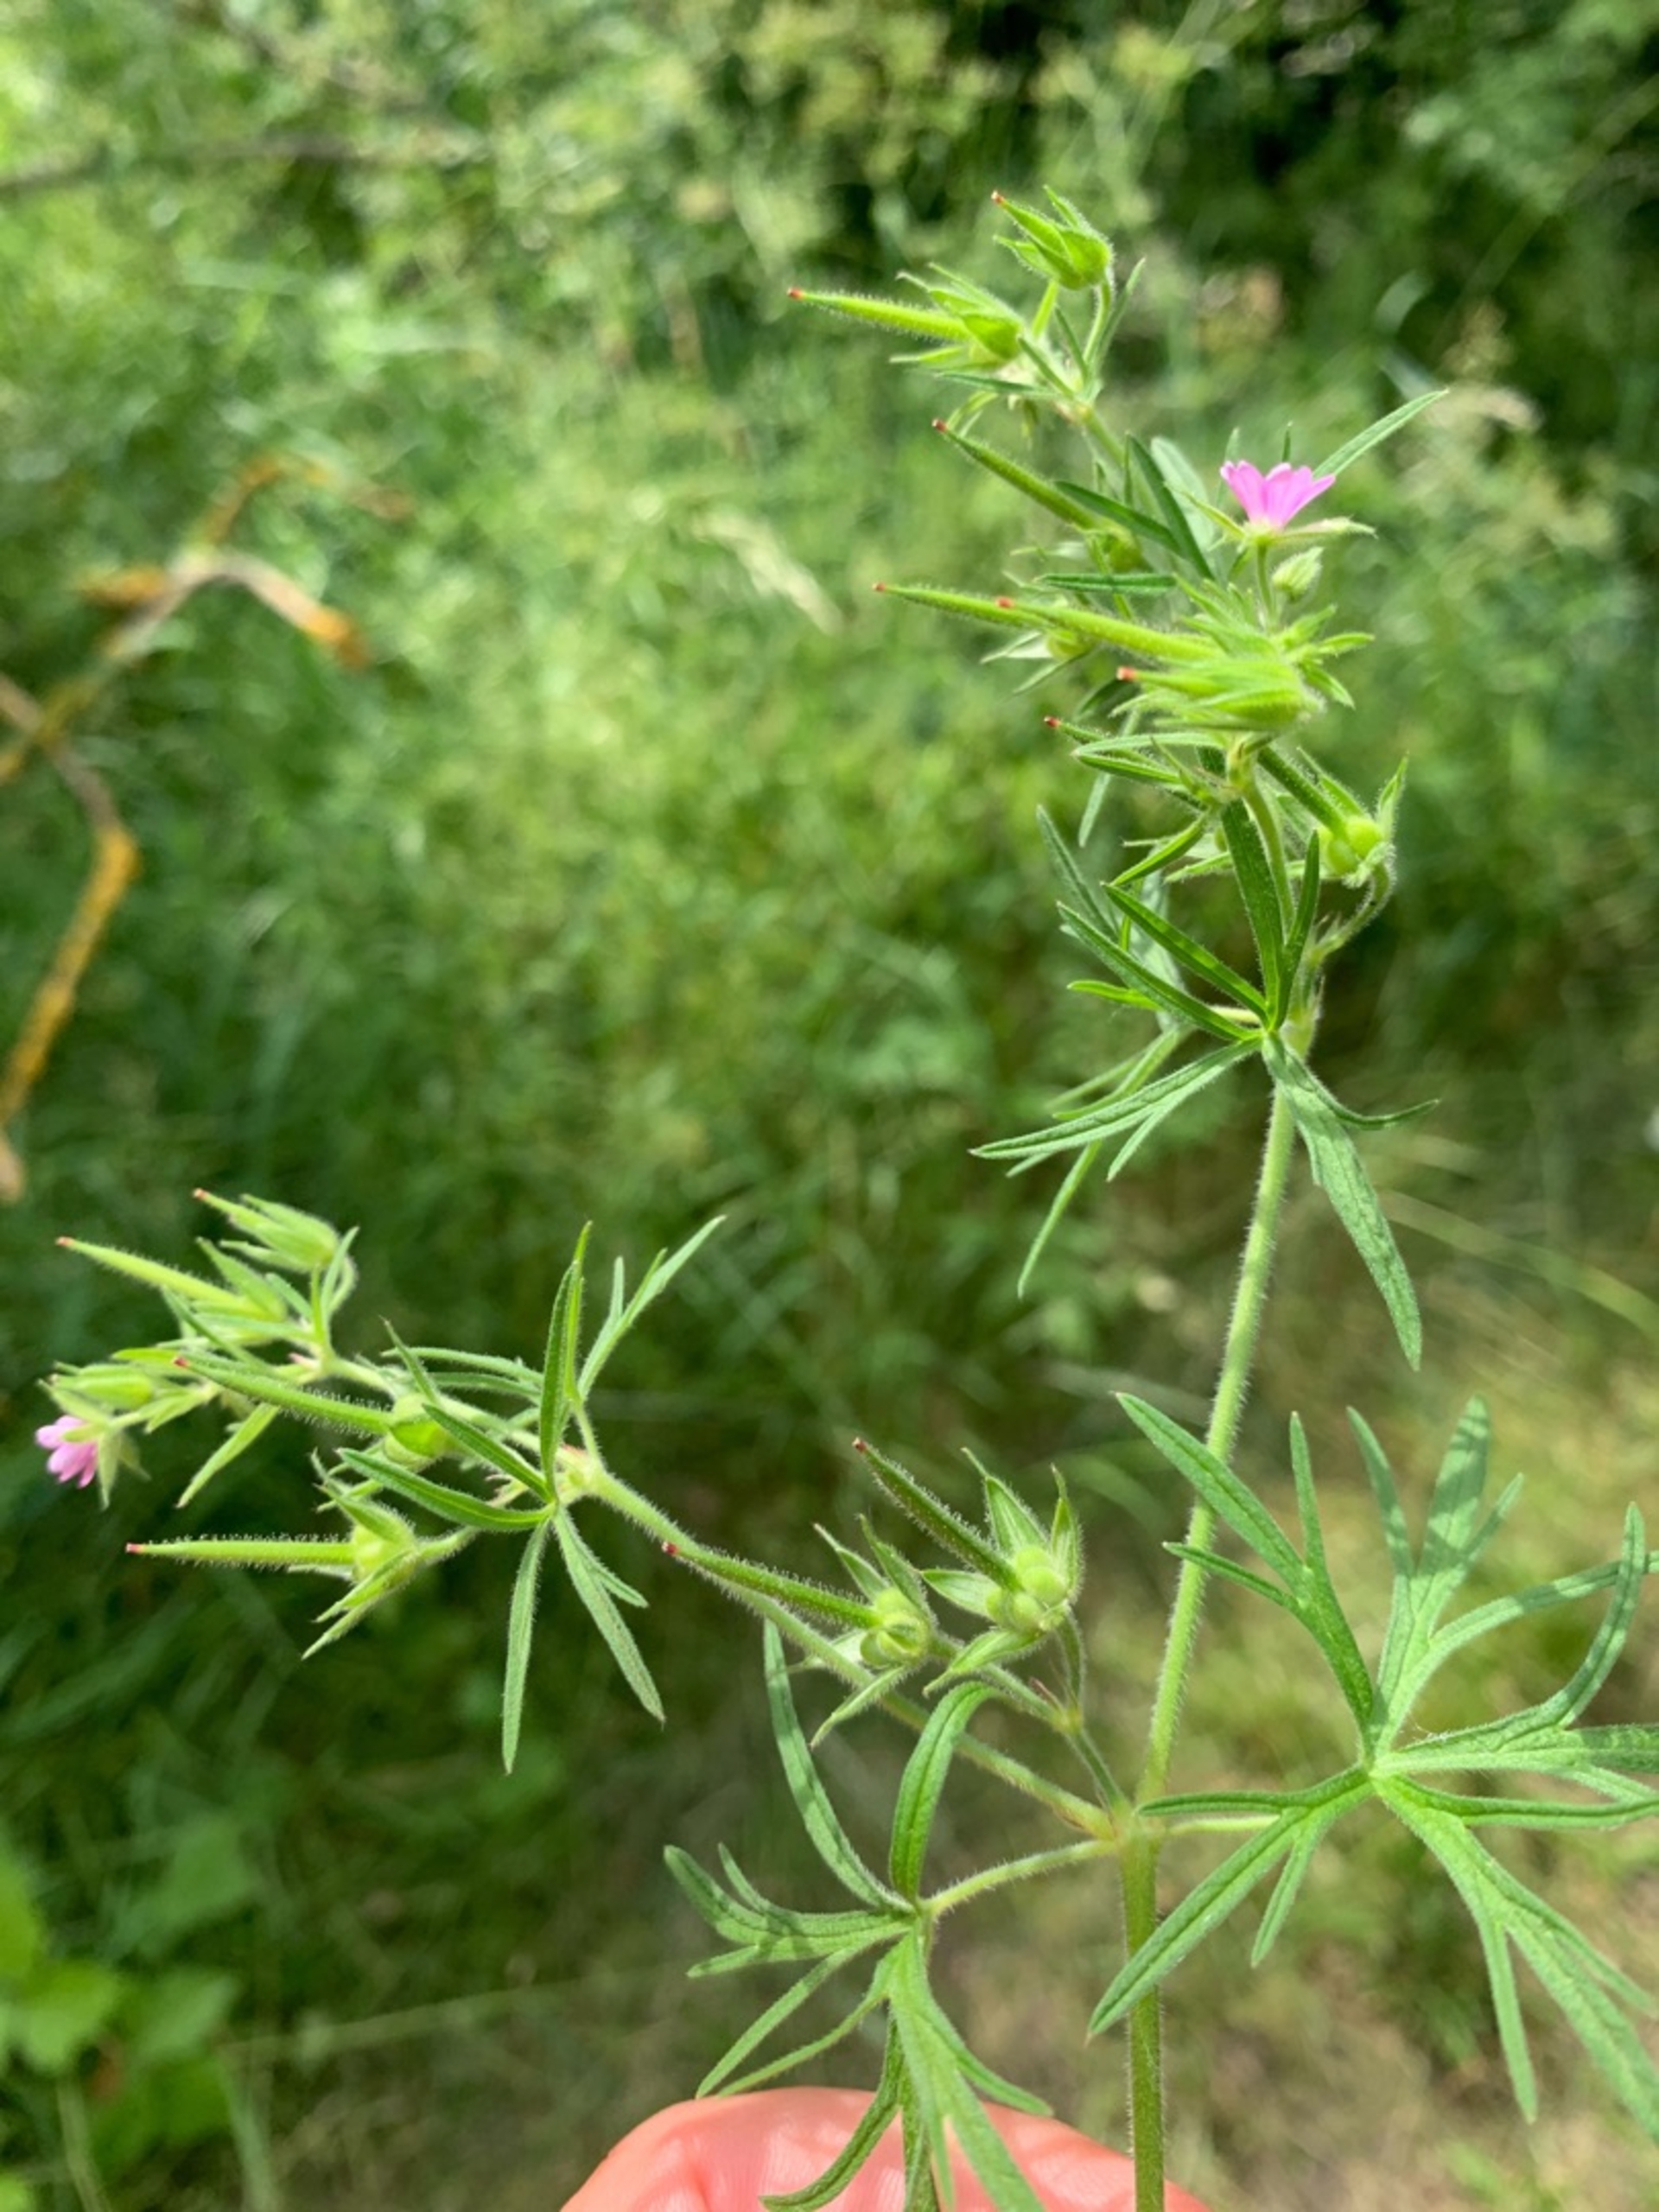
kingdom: Plantae
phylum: Tracheophyta
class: Magnoliopsida
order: Geraniales
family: Geraniaceae
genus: Geranium
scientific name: Geranium dissectum
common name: Kløftet storkenæb
